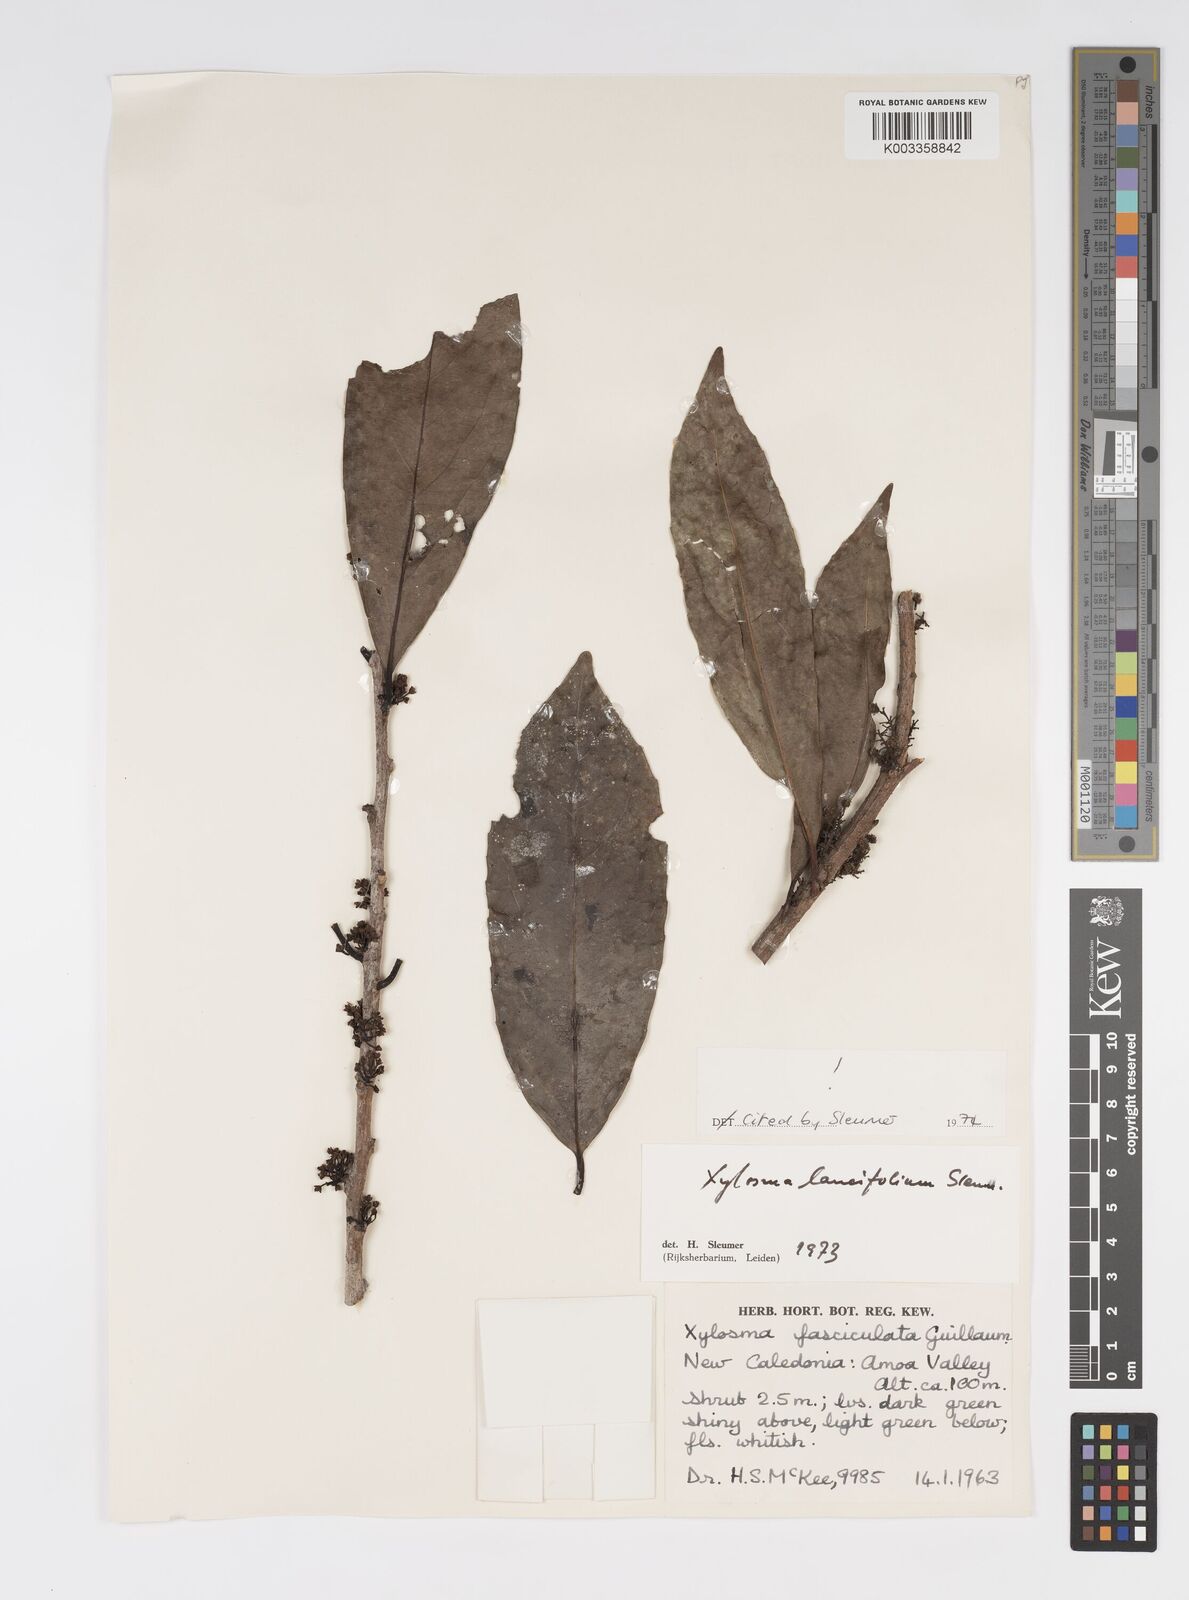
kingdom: Plantae
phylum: Tracheophyta
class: Magnoliopsida
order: Malpighiales
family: Salicaceae
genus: Xylosma
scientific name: Xylosma
